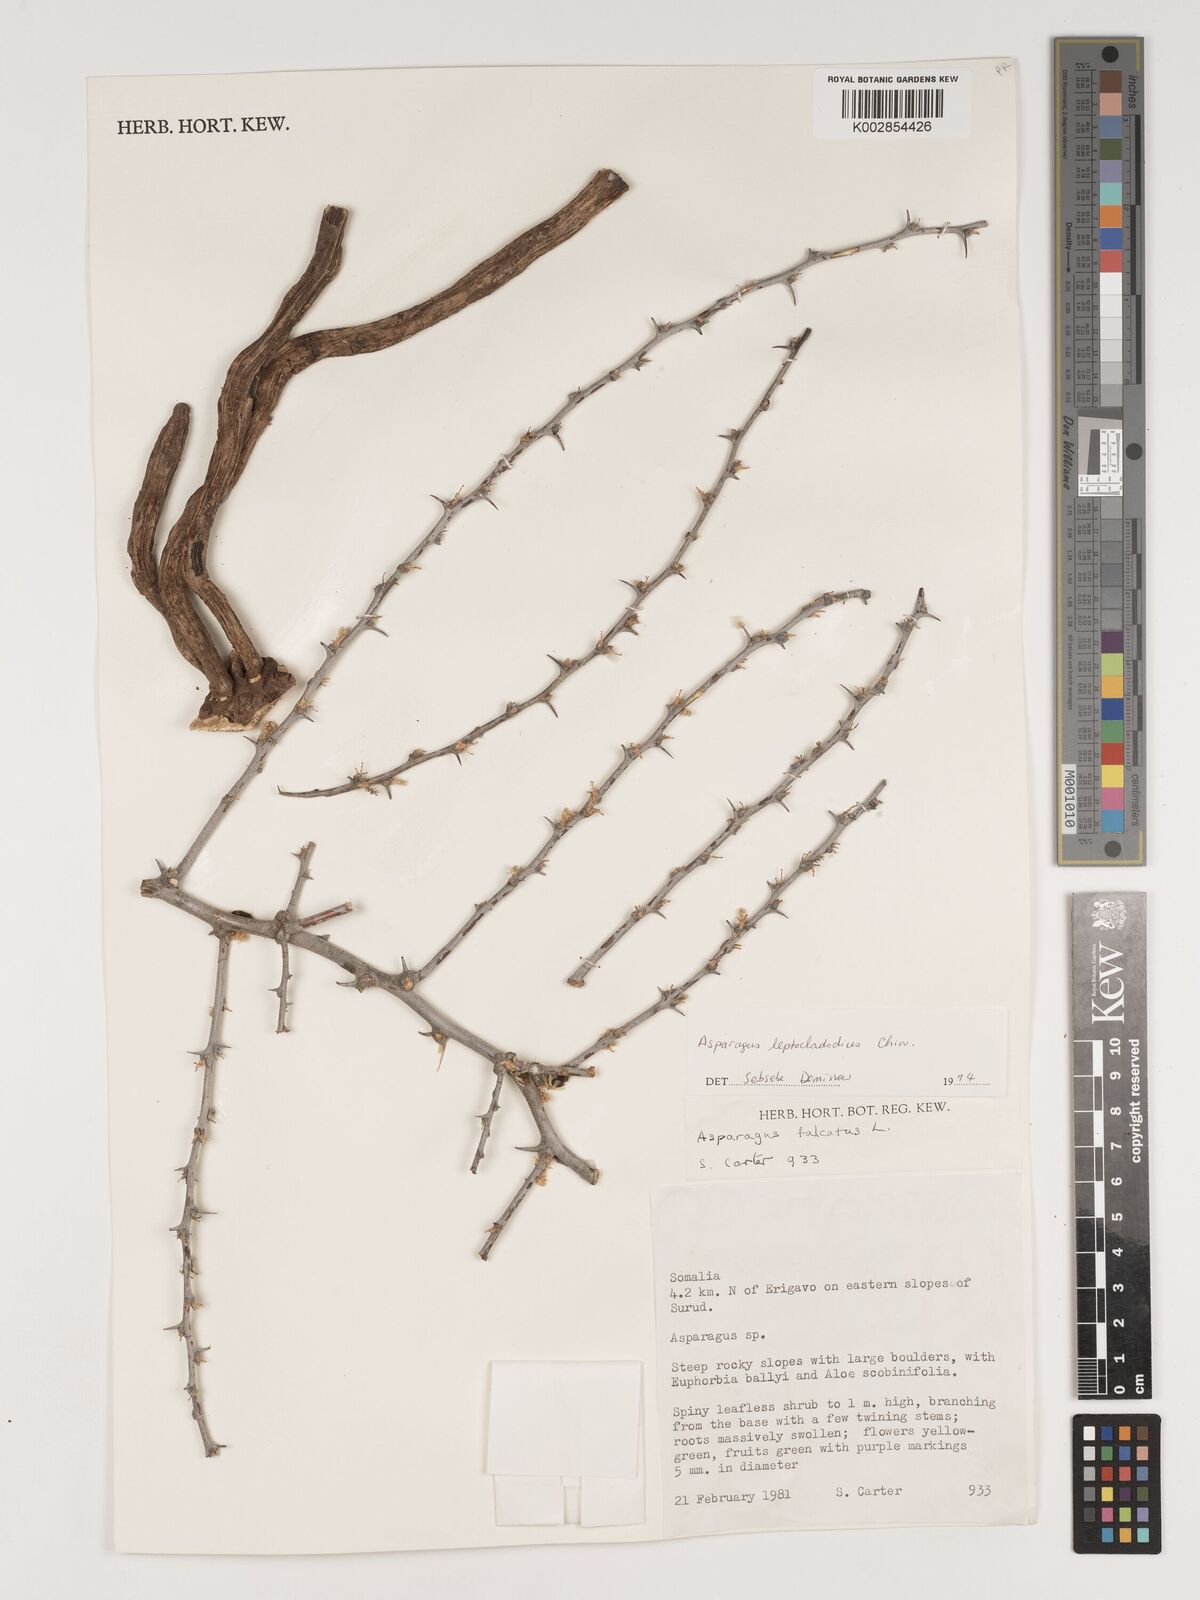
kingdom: Plantae
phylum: Tracheophyta
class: Liliopsida
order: Asparagales
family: Asparagaceae
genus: Asparagus
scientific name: Asparagus leptocladodius
